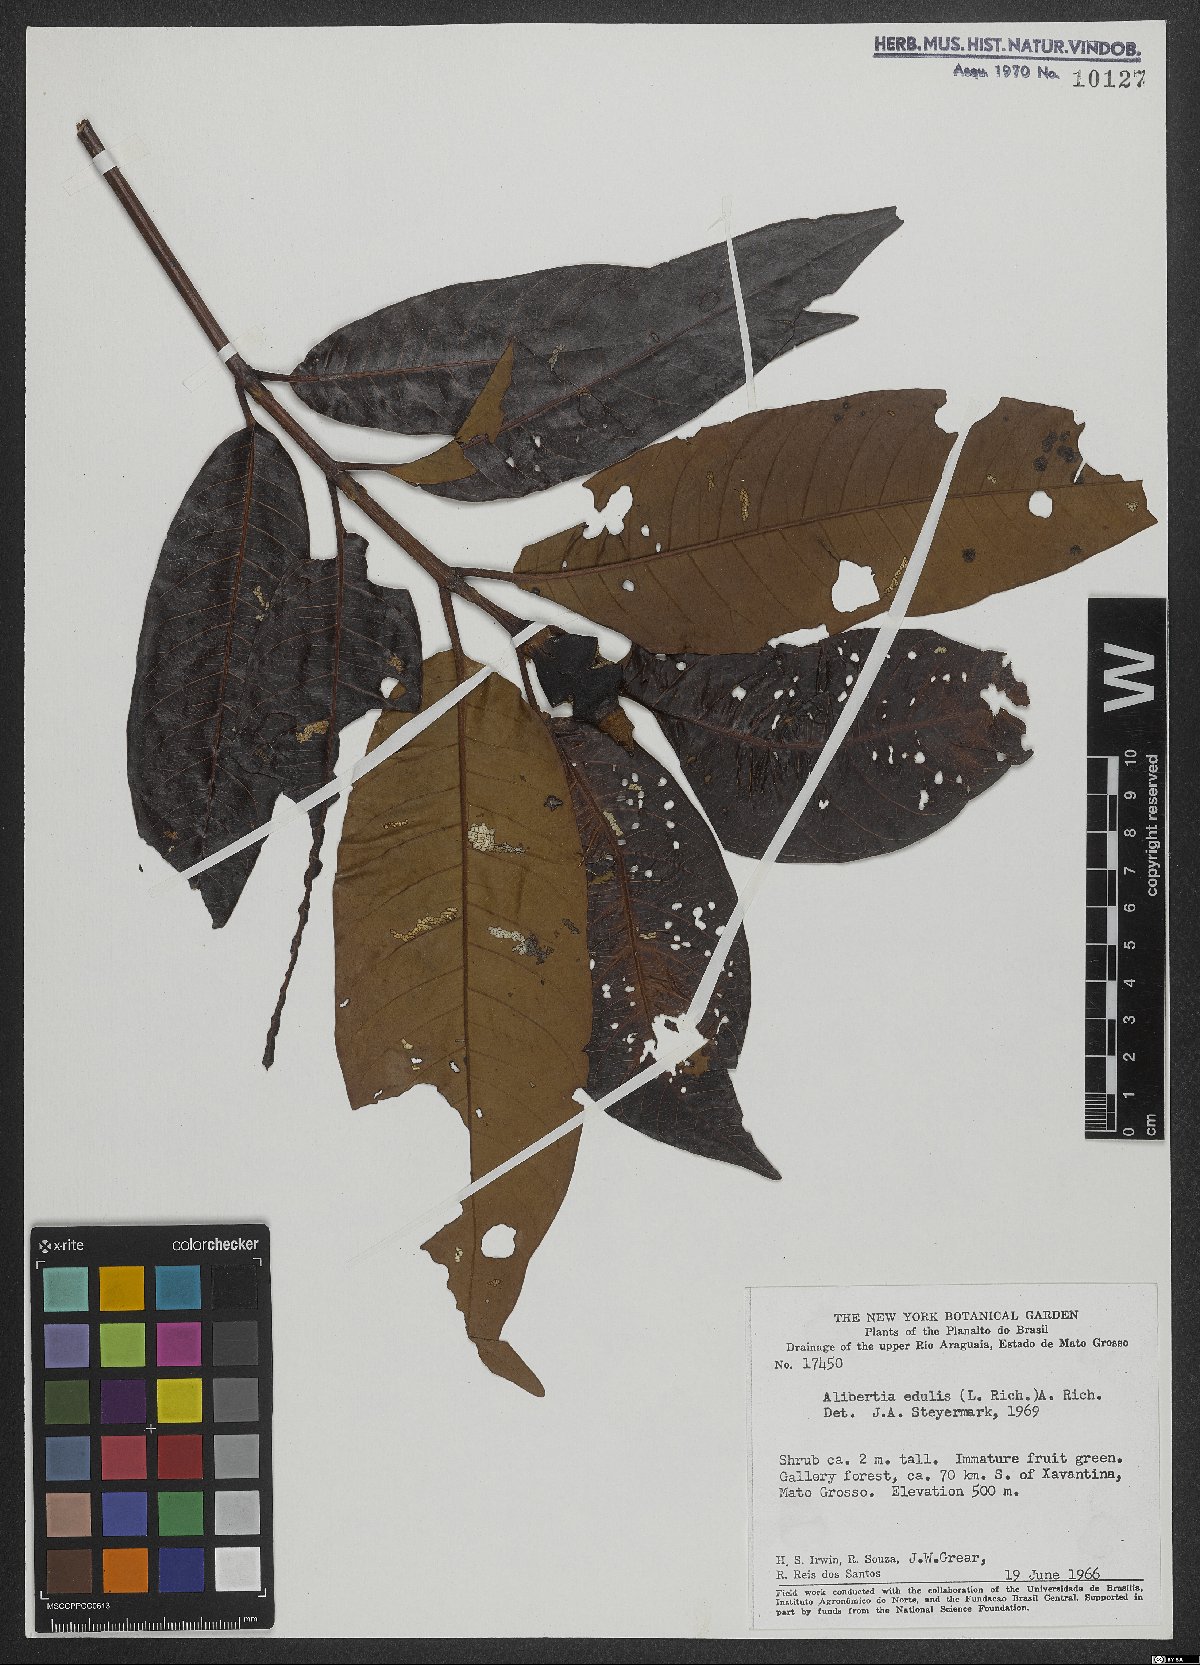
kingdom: Plantae
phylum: Tracheophyta
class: Magnoliopsida
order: Gentianales
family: Rubiaceae
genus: Alibertia
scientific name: Alibertia edulis
